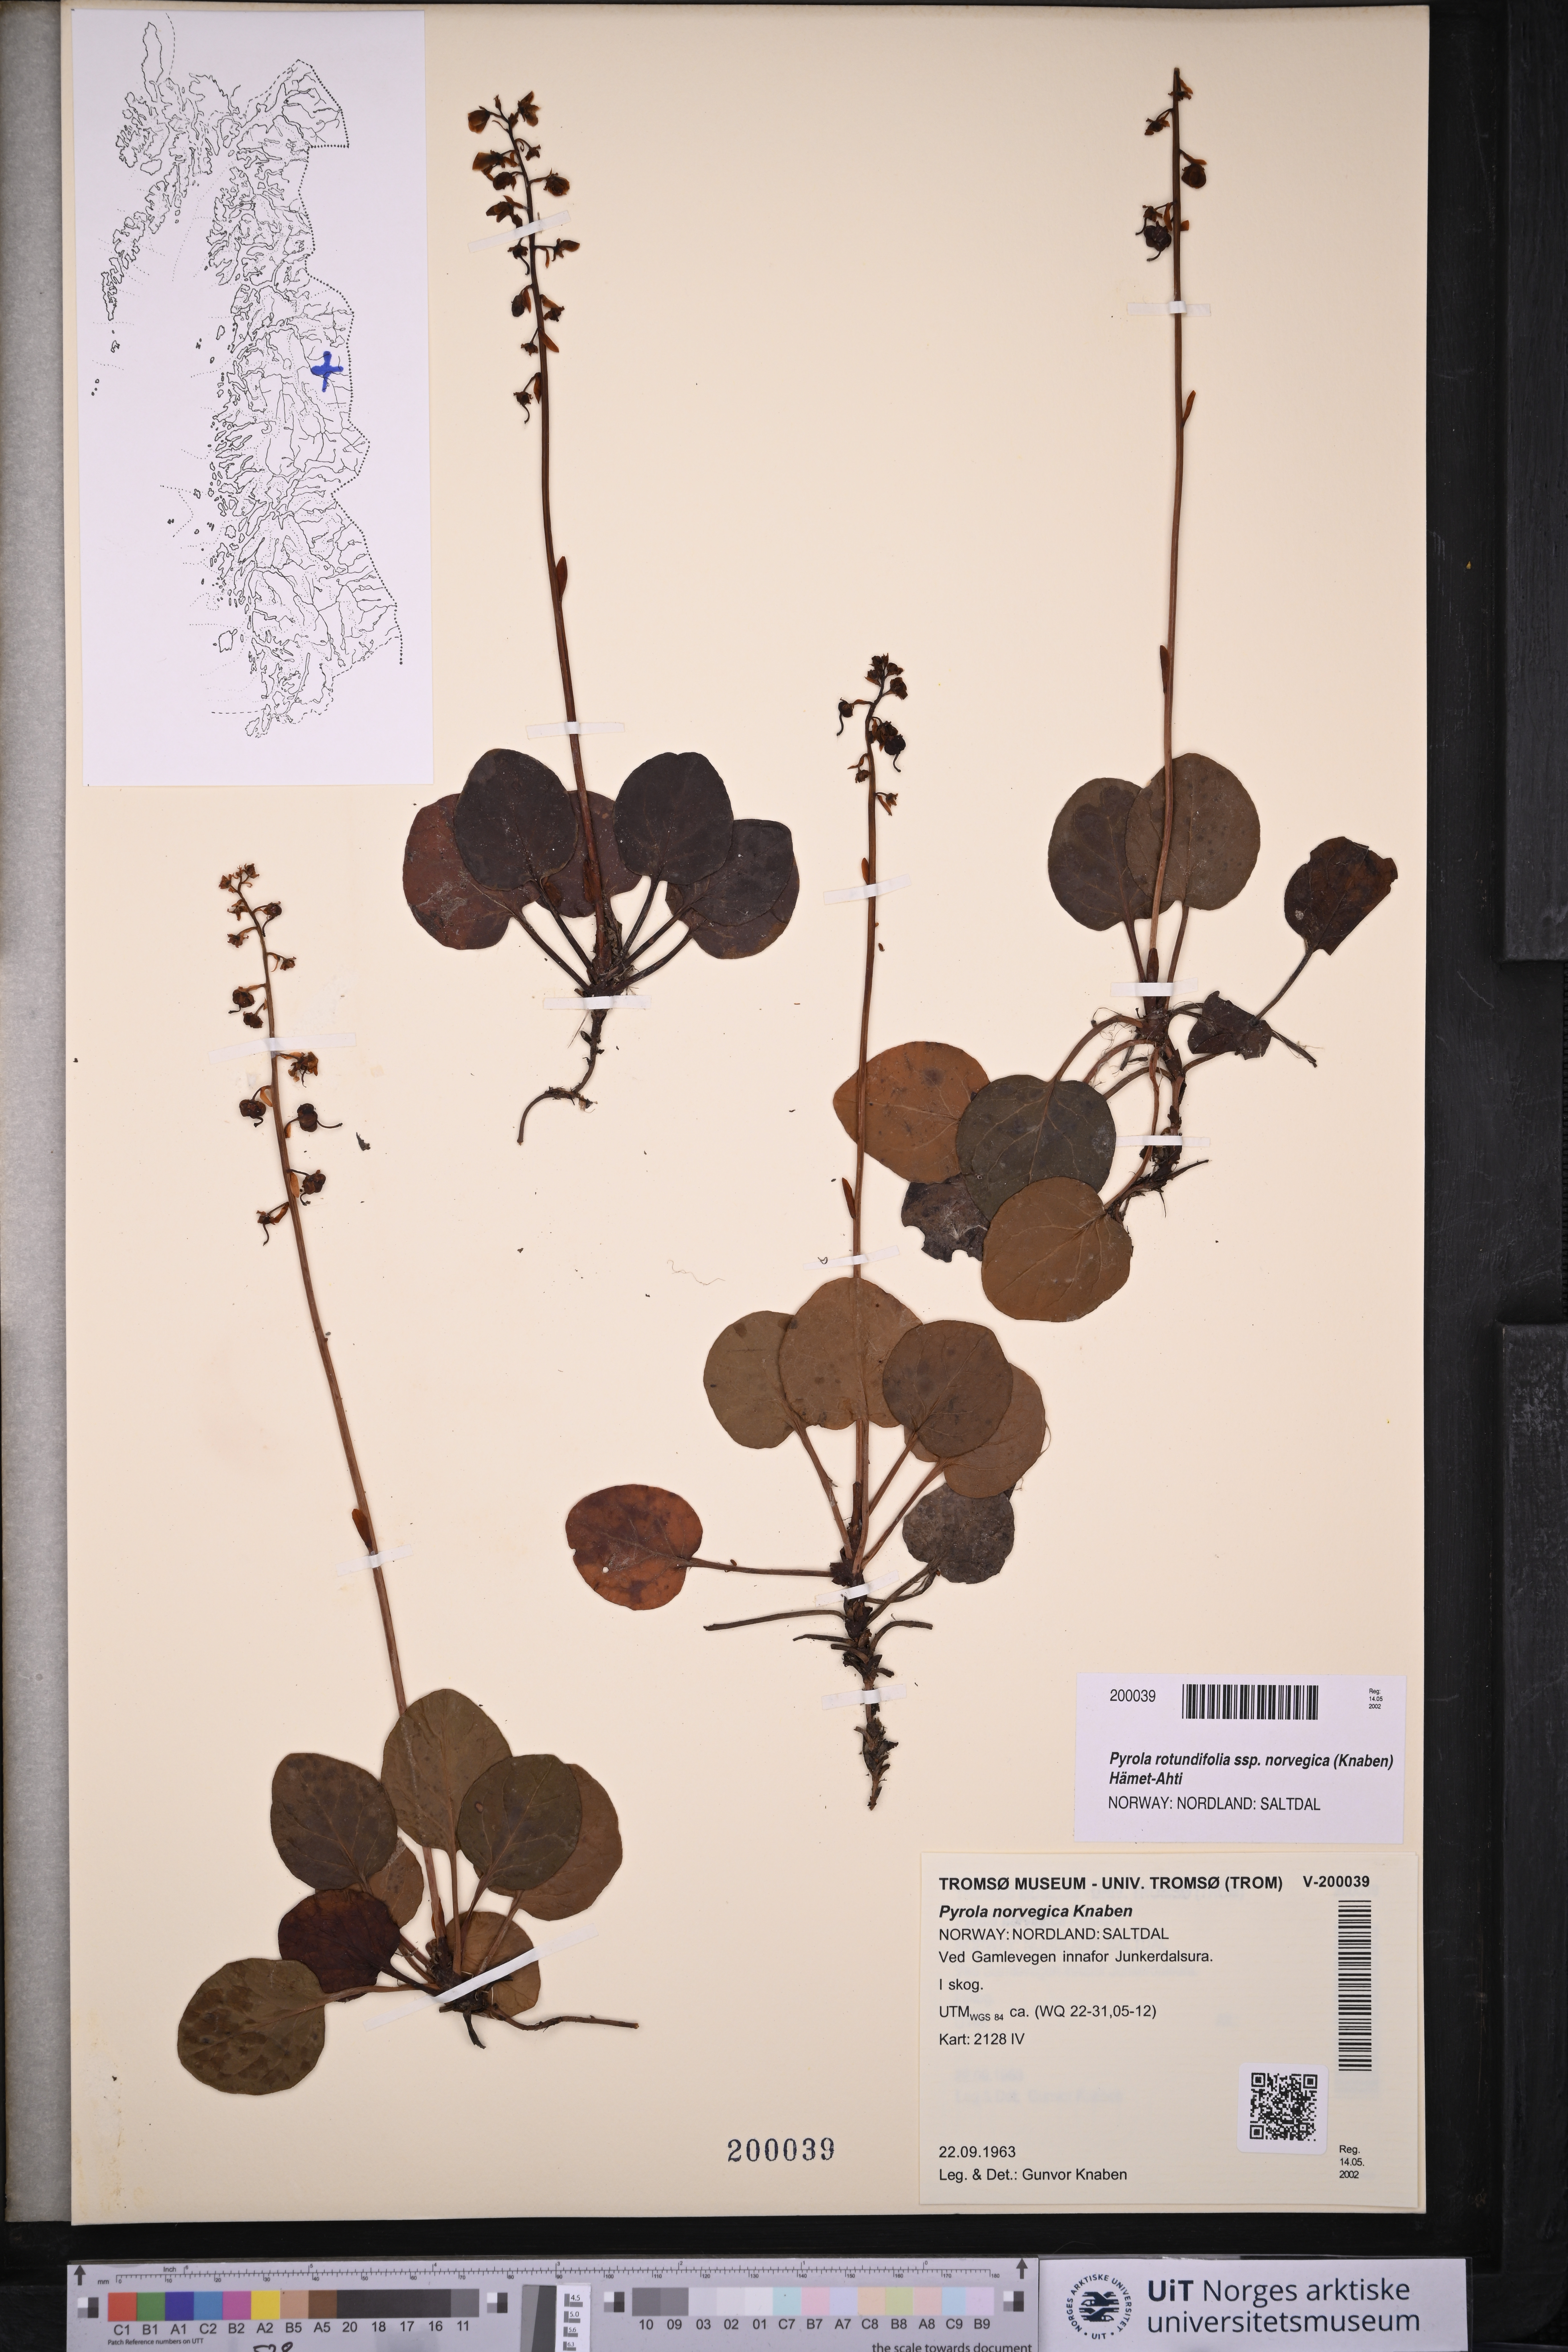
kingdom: Plantae
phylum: Tracheophyta
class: Magnoliopsida
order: Ericales
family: Ericaceae
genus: Pyrola
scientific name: Pyrola rotundifolia
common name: Round-leaved wintergreen
